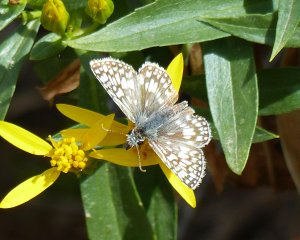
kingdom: Animalia
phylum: Arthropoda
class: Insecta
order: Lepidoptera
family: Hesperiidae
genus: Pyrgus
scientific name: Pyrgus oileus
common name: Desert Checkered-Skipper
